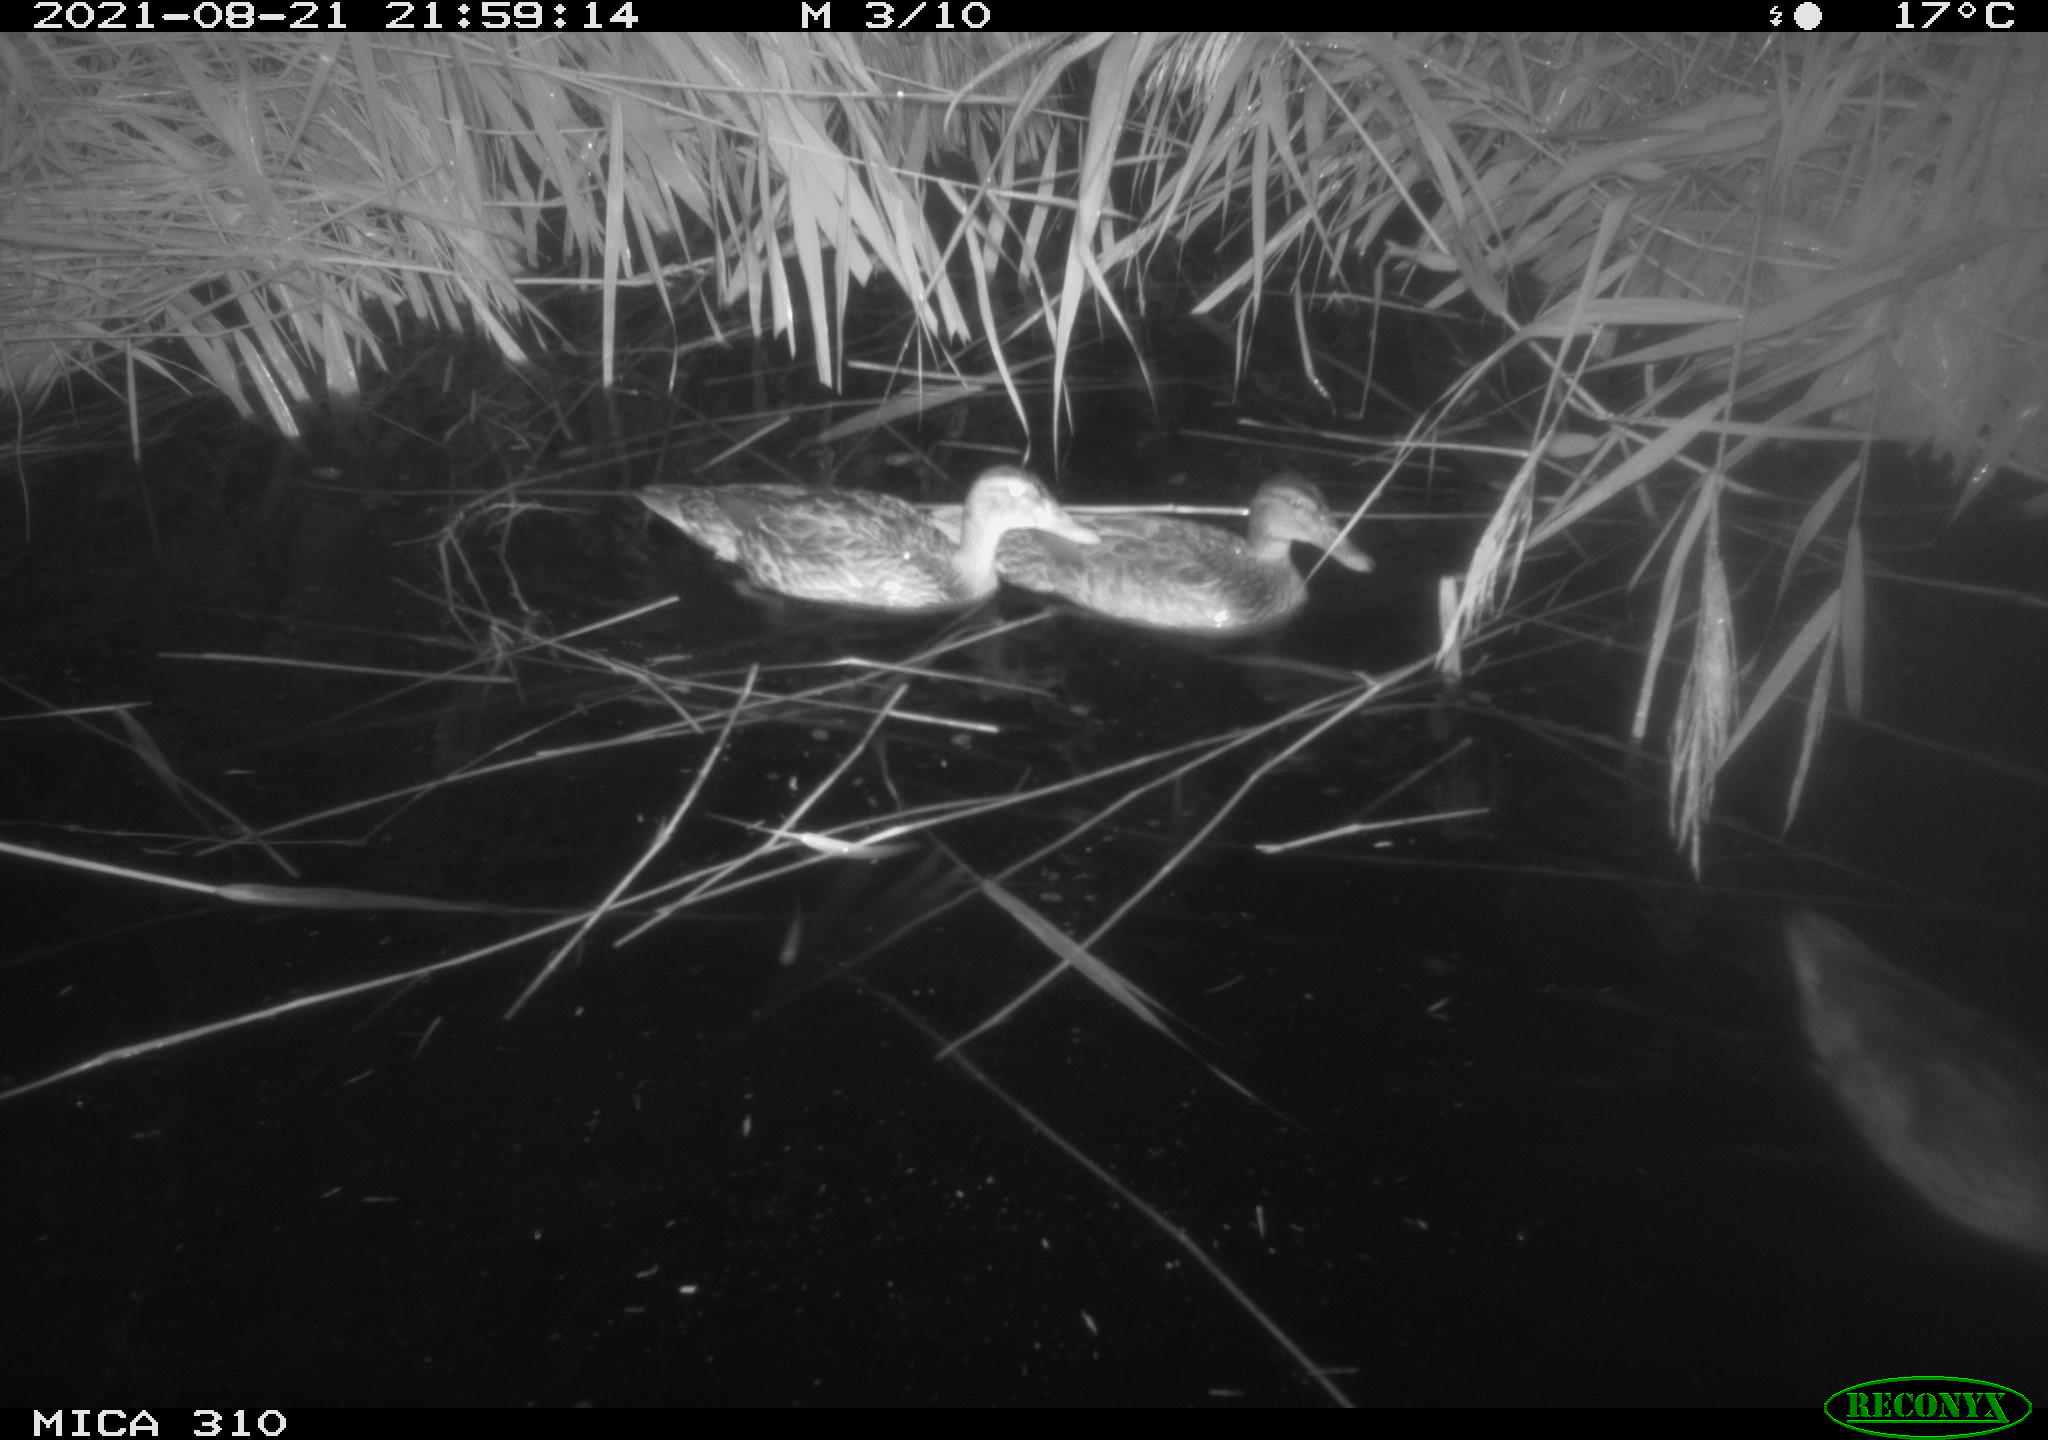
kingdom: Animalia
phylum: Chordata
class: Aves
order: Anseriformes
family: Anatidae
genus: Anas
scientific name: Anas platyrhynchos
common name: Mallard
